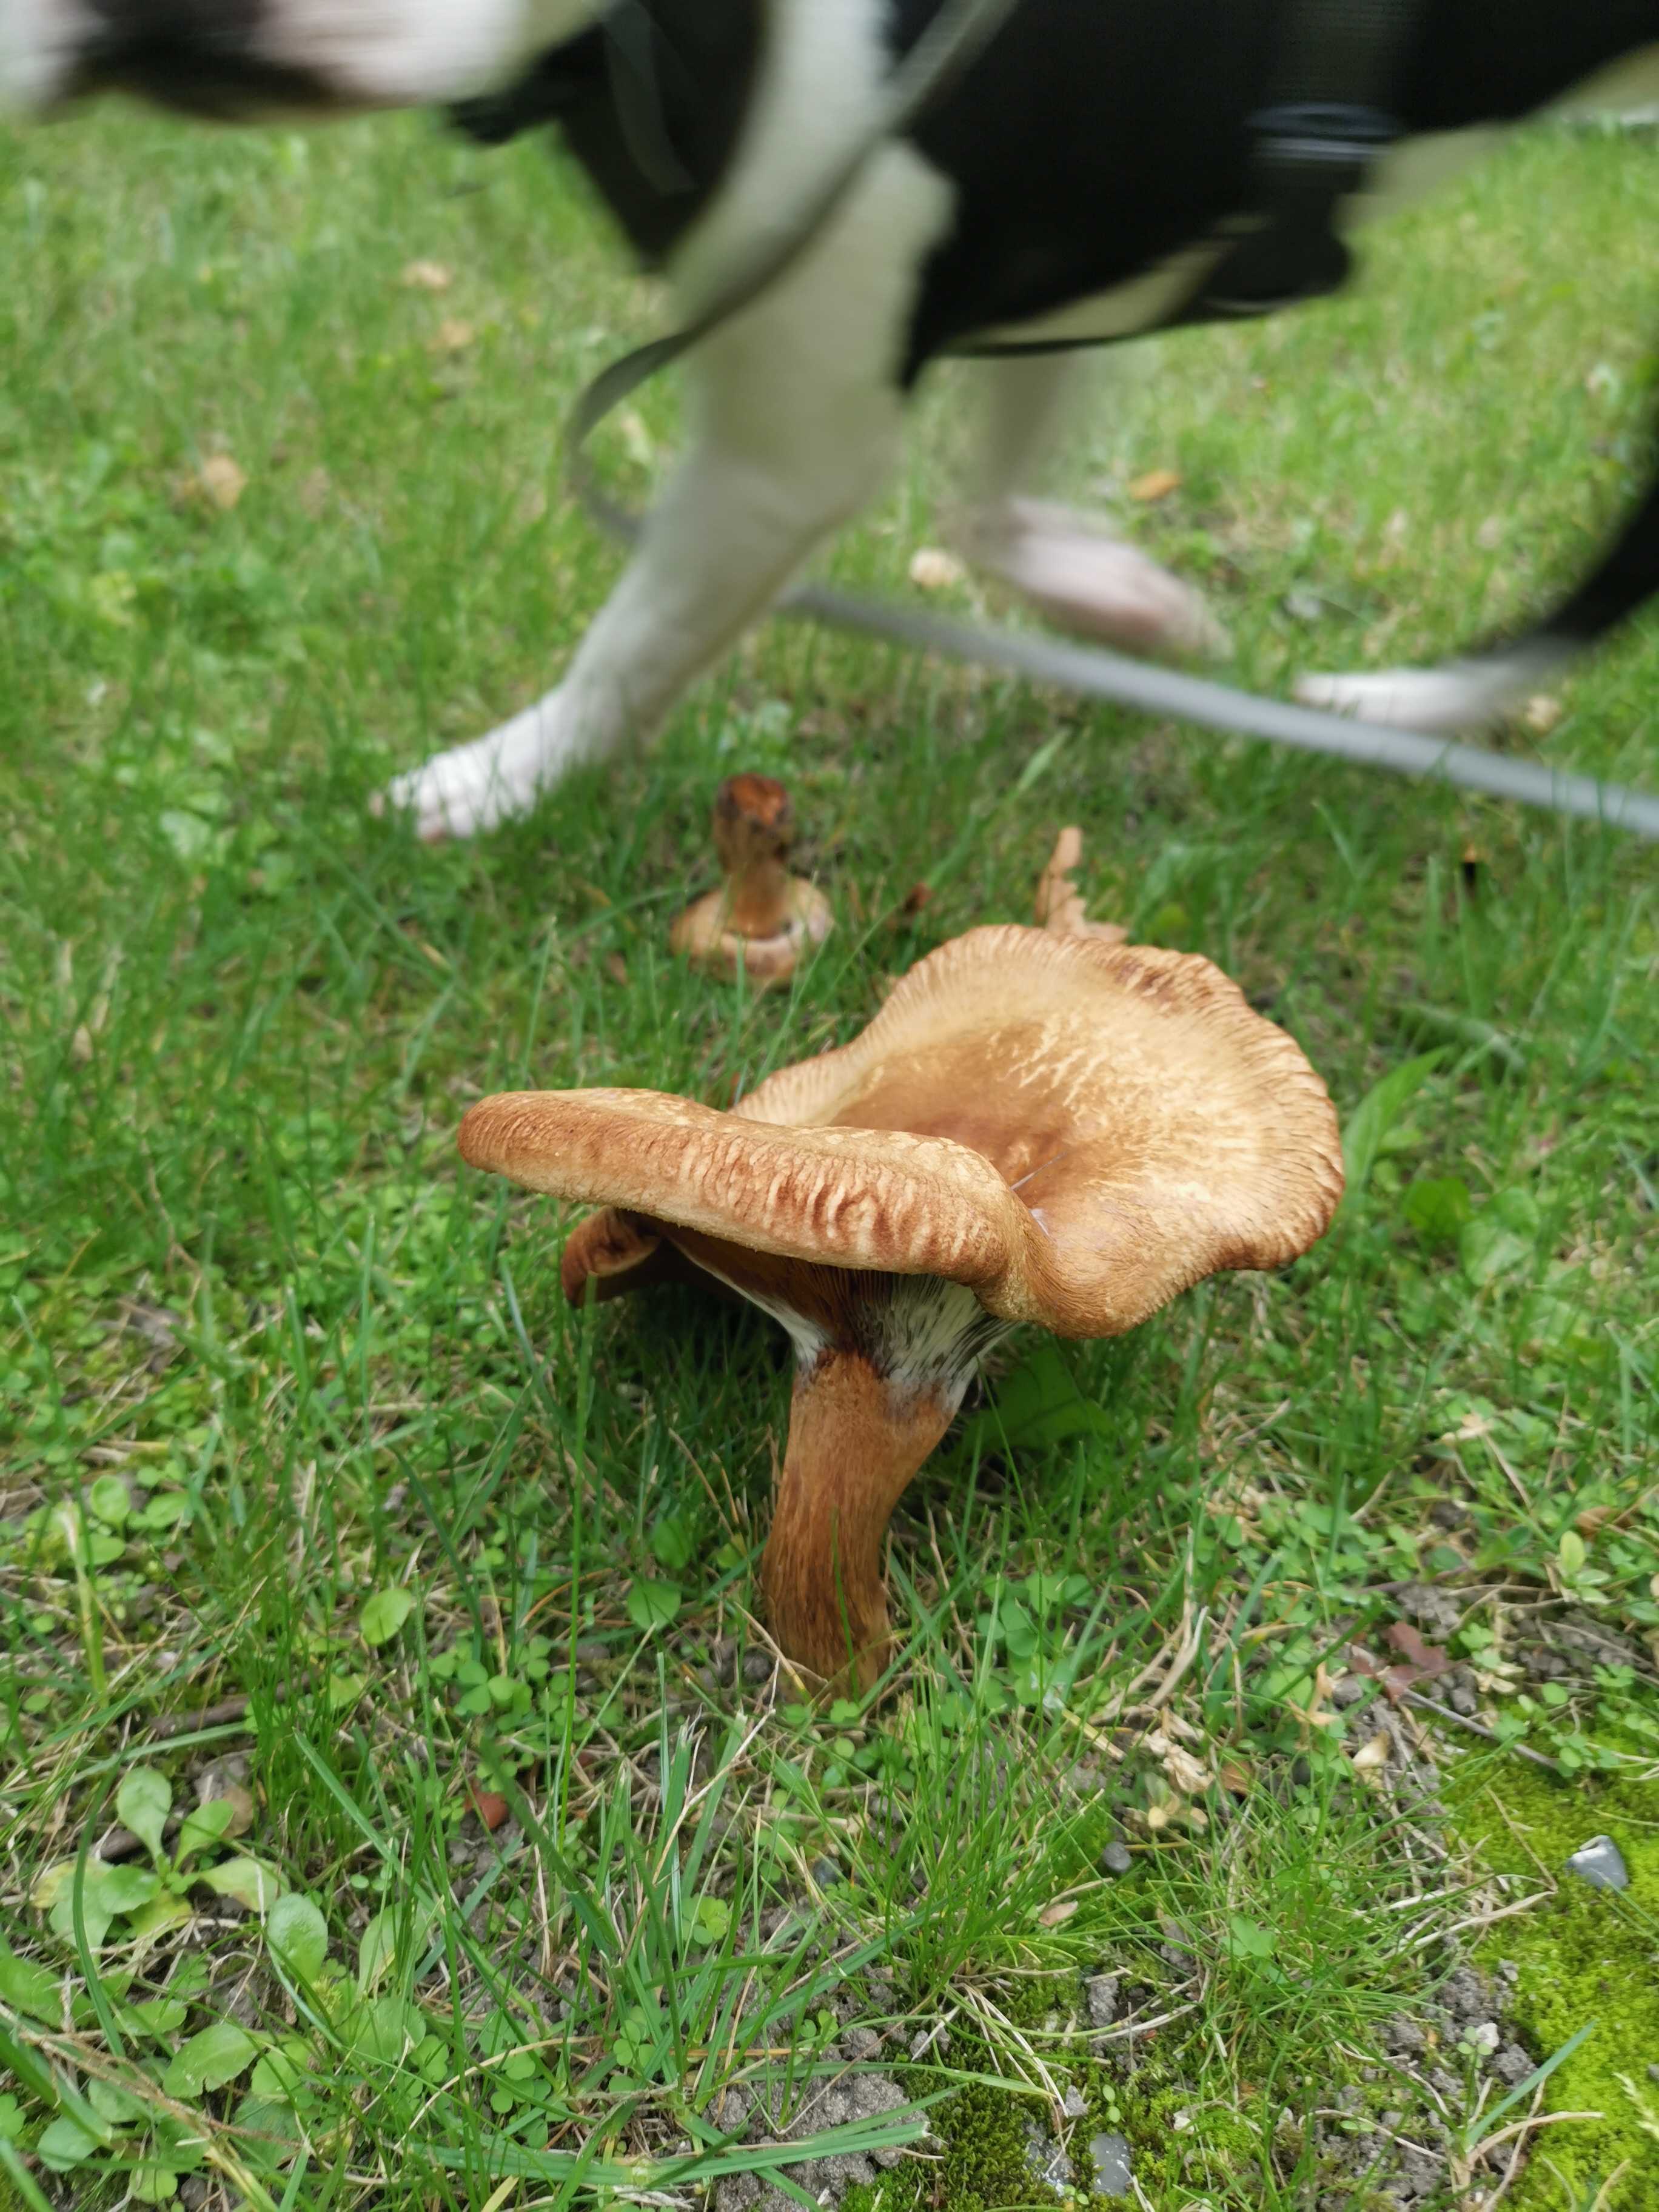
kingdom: Fungi
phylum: Basidiomycota
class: Agaricomycetes
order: Boletales
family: Paxillaceae
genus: Paxillus
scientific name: Paxillus
